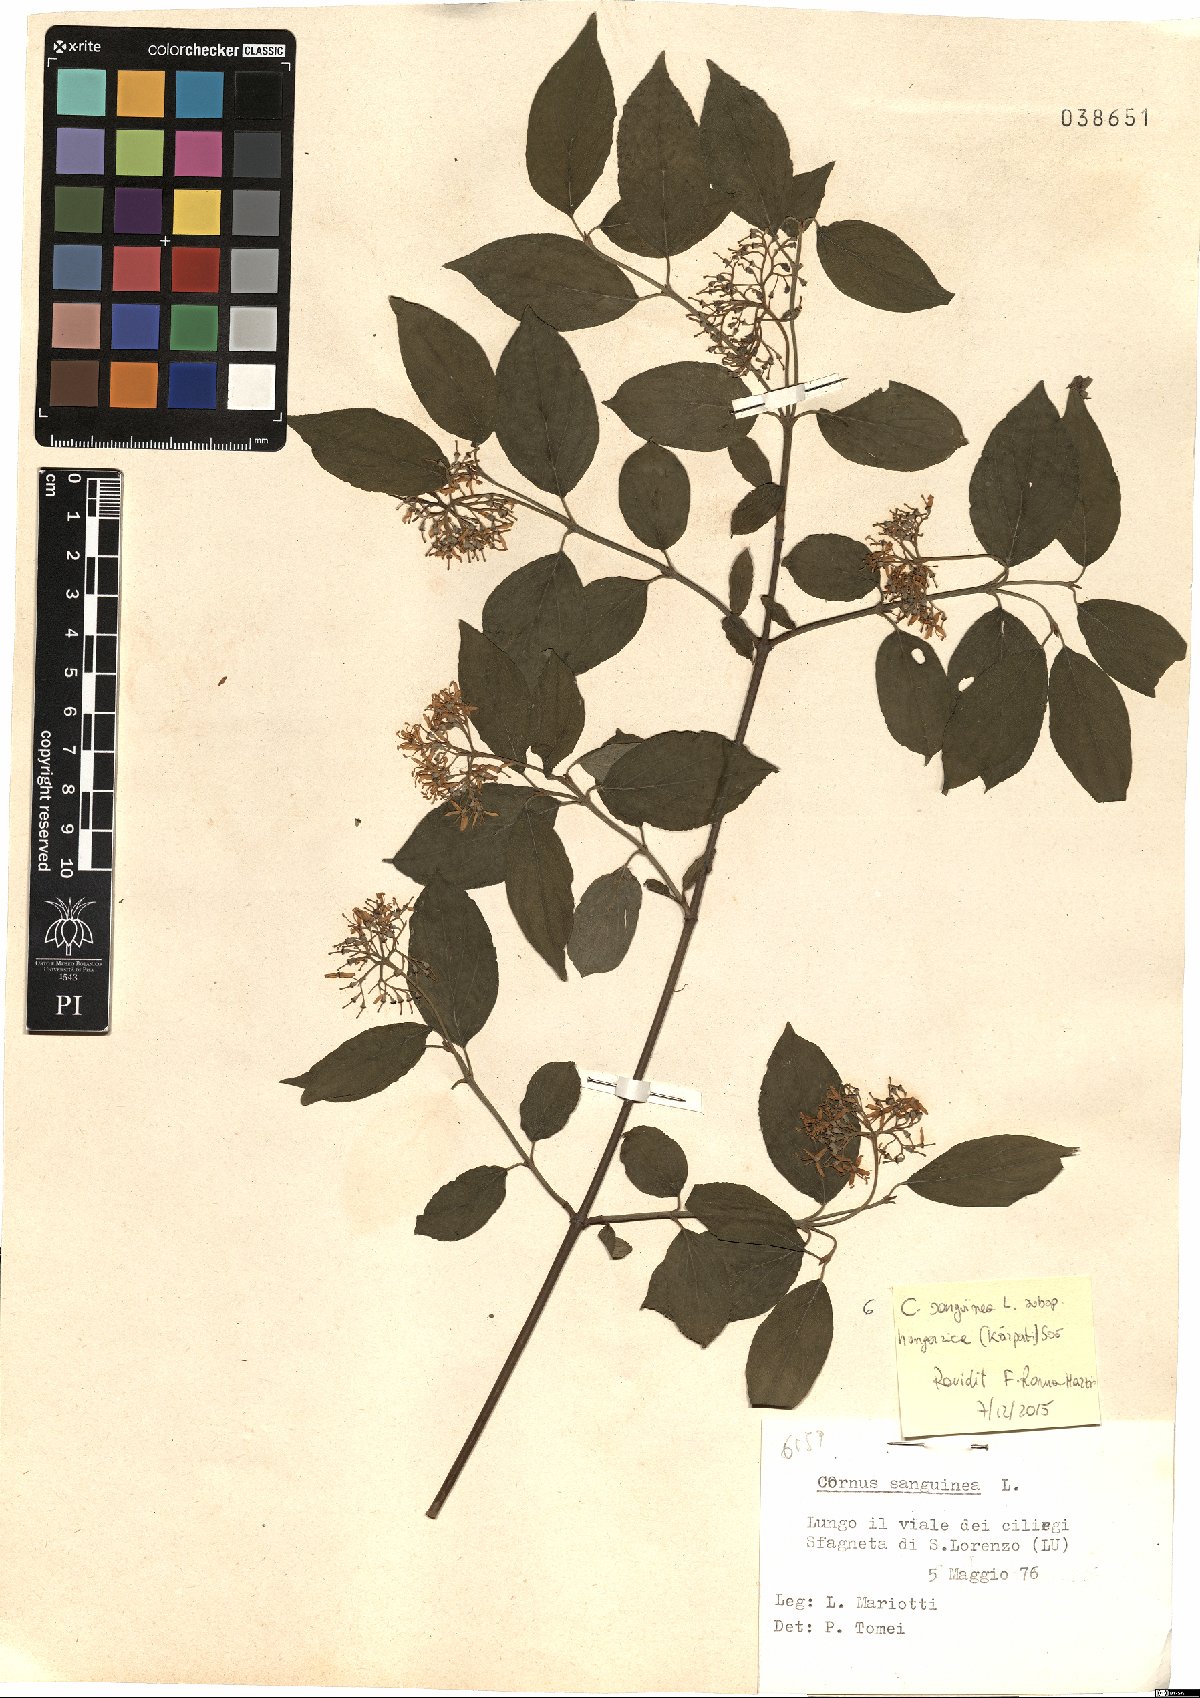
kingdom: Plantae
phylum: Tracheophyta
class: Magnoliopsida
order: Cornales
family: Cornaceae
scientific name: Cornaceae
